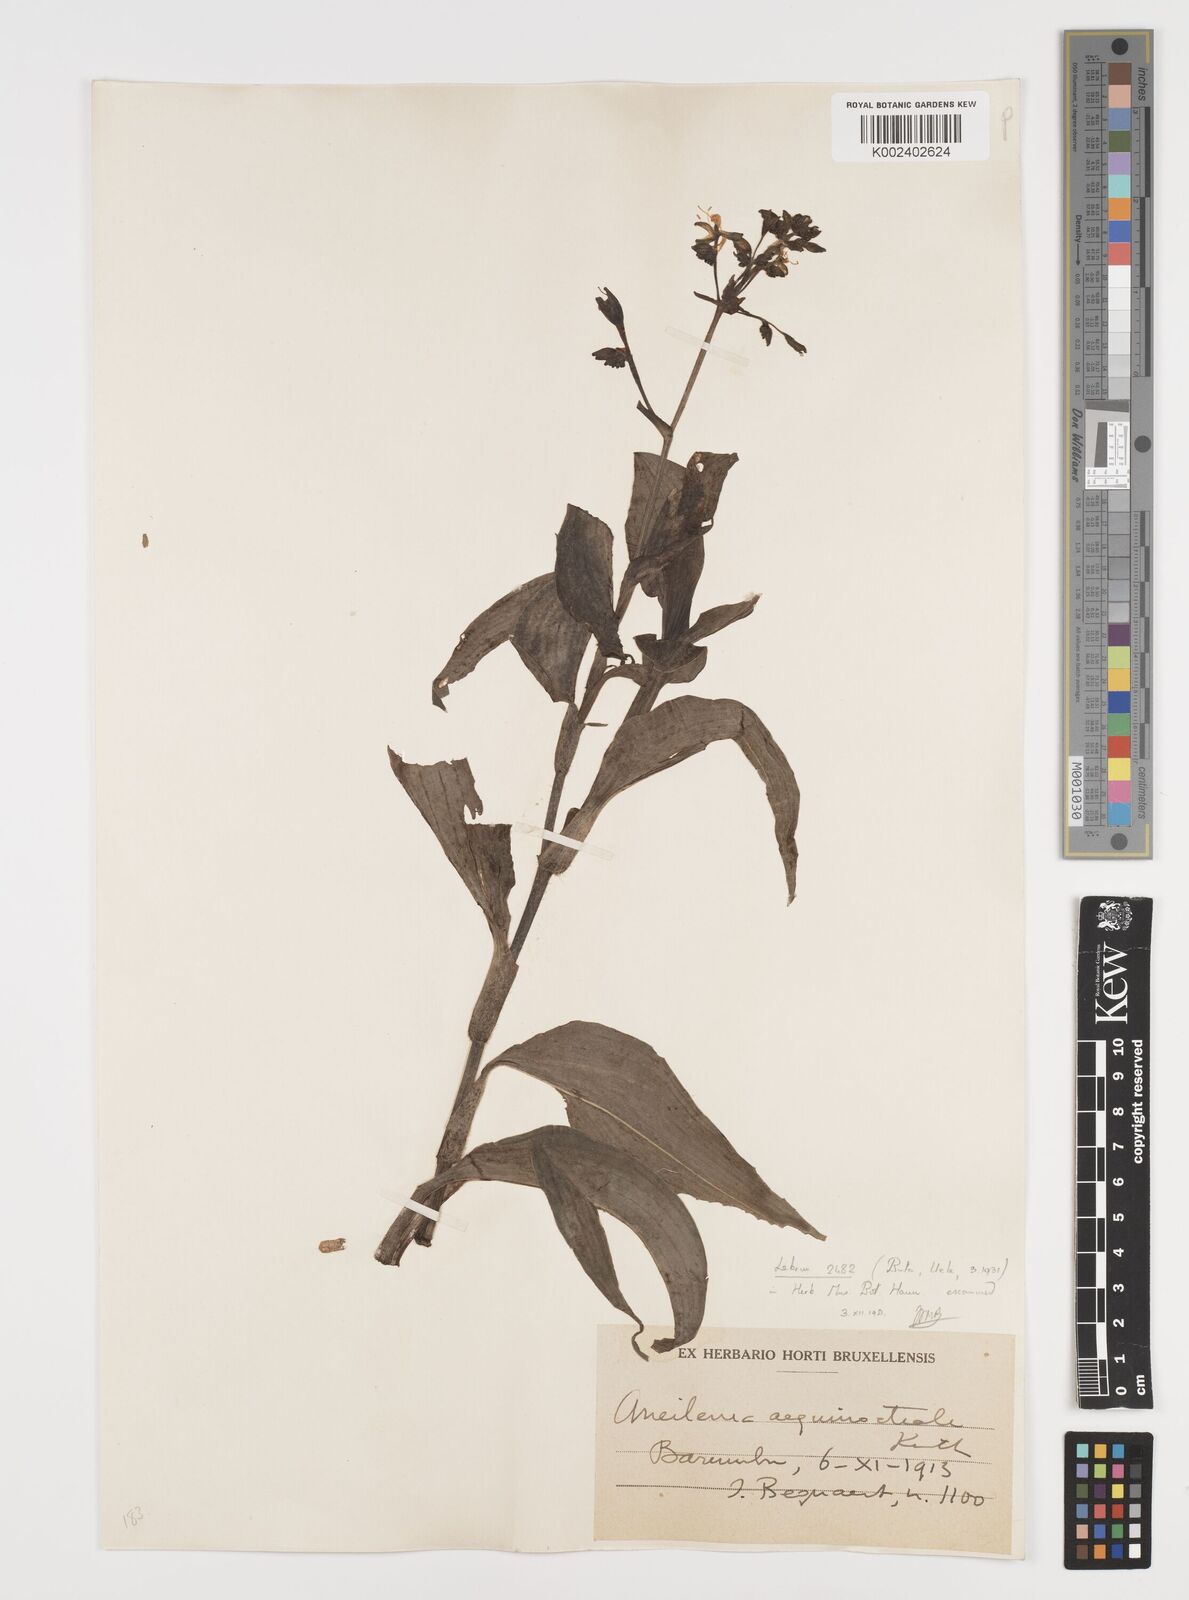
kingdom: Plantae
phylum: Tracheophyta
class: Liliopsida
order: Commelinales
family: Commelinaceae
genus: Aneilema
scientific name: Aneilema aequinoctiale
